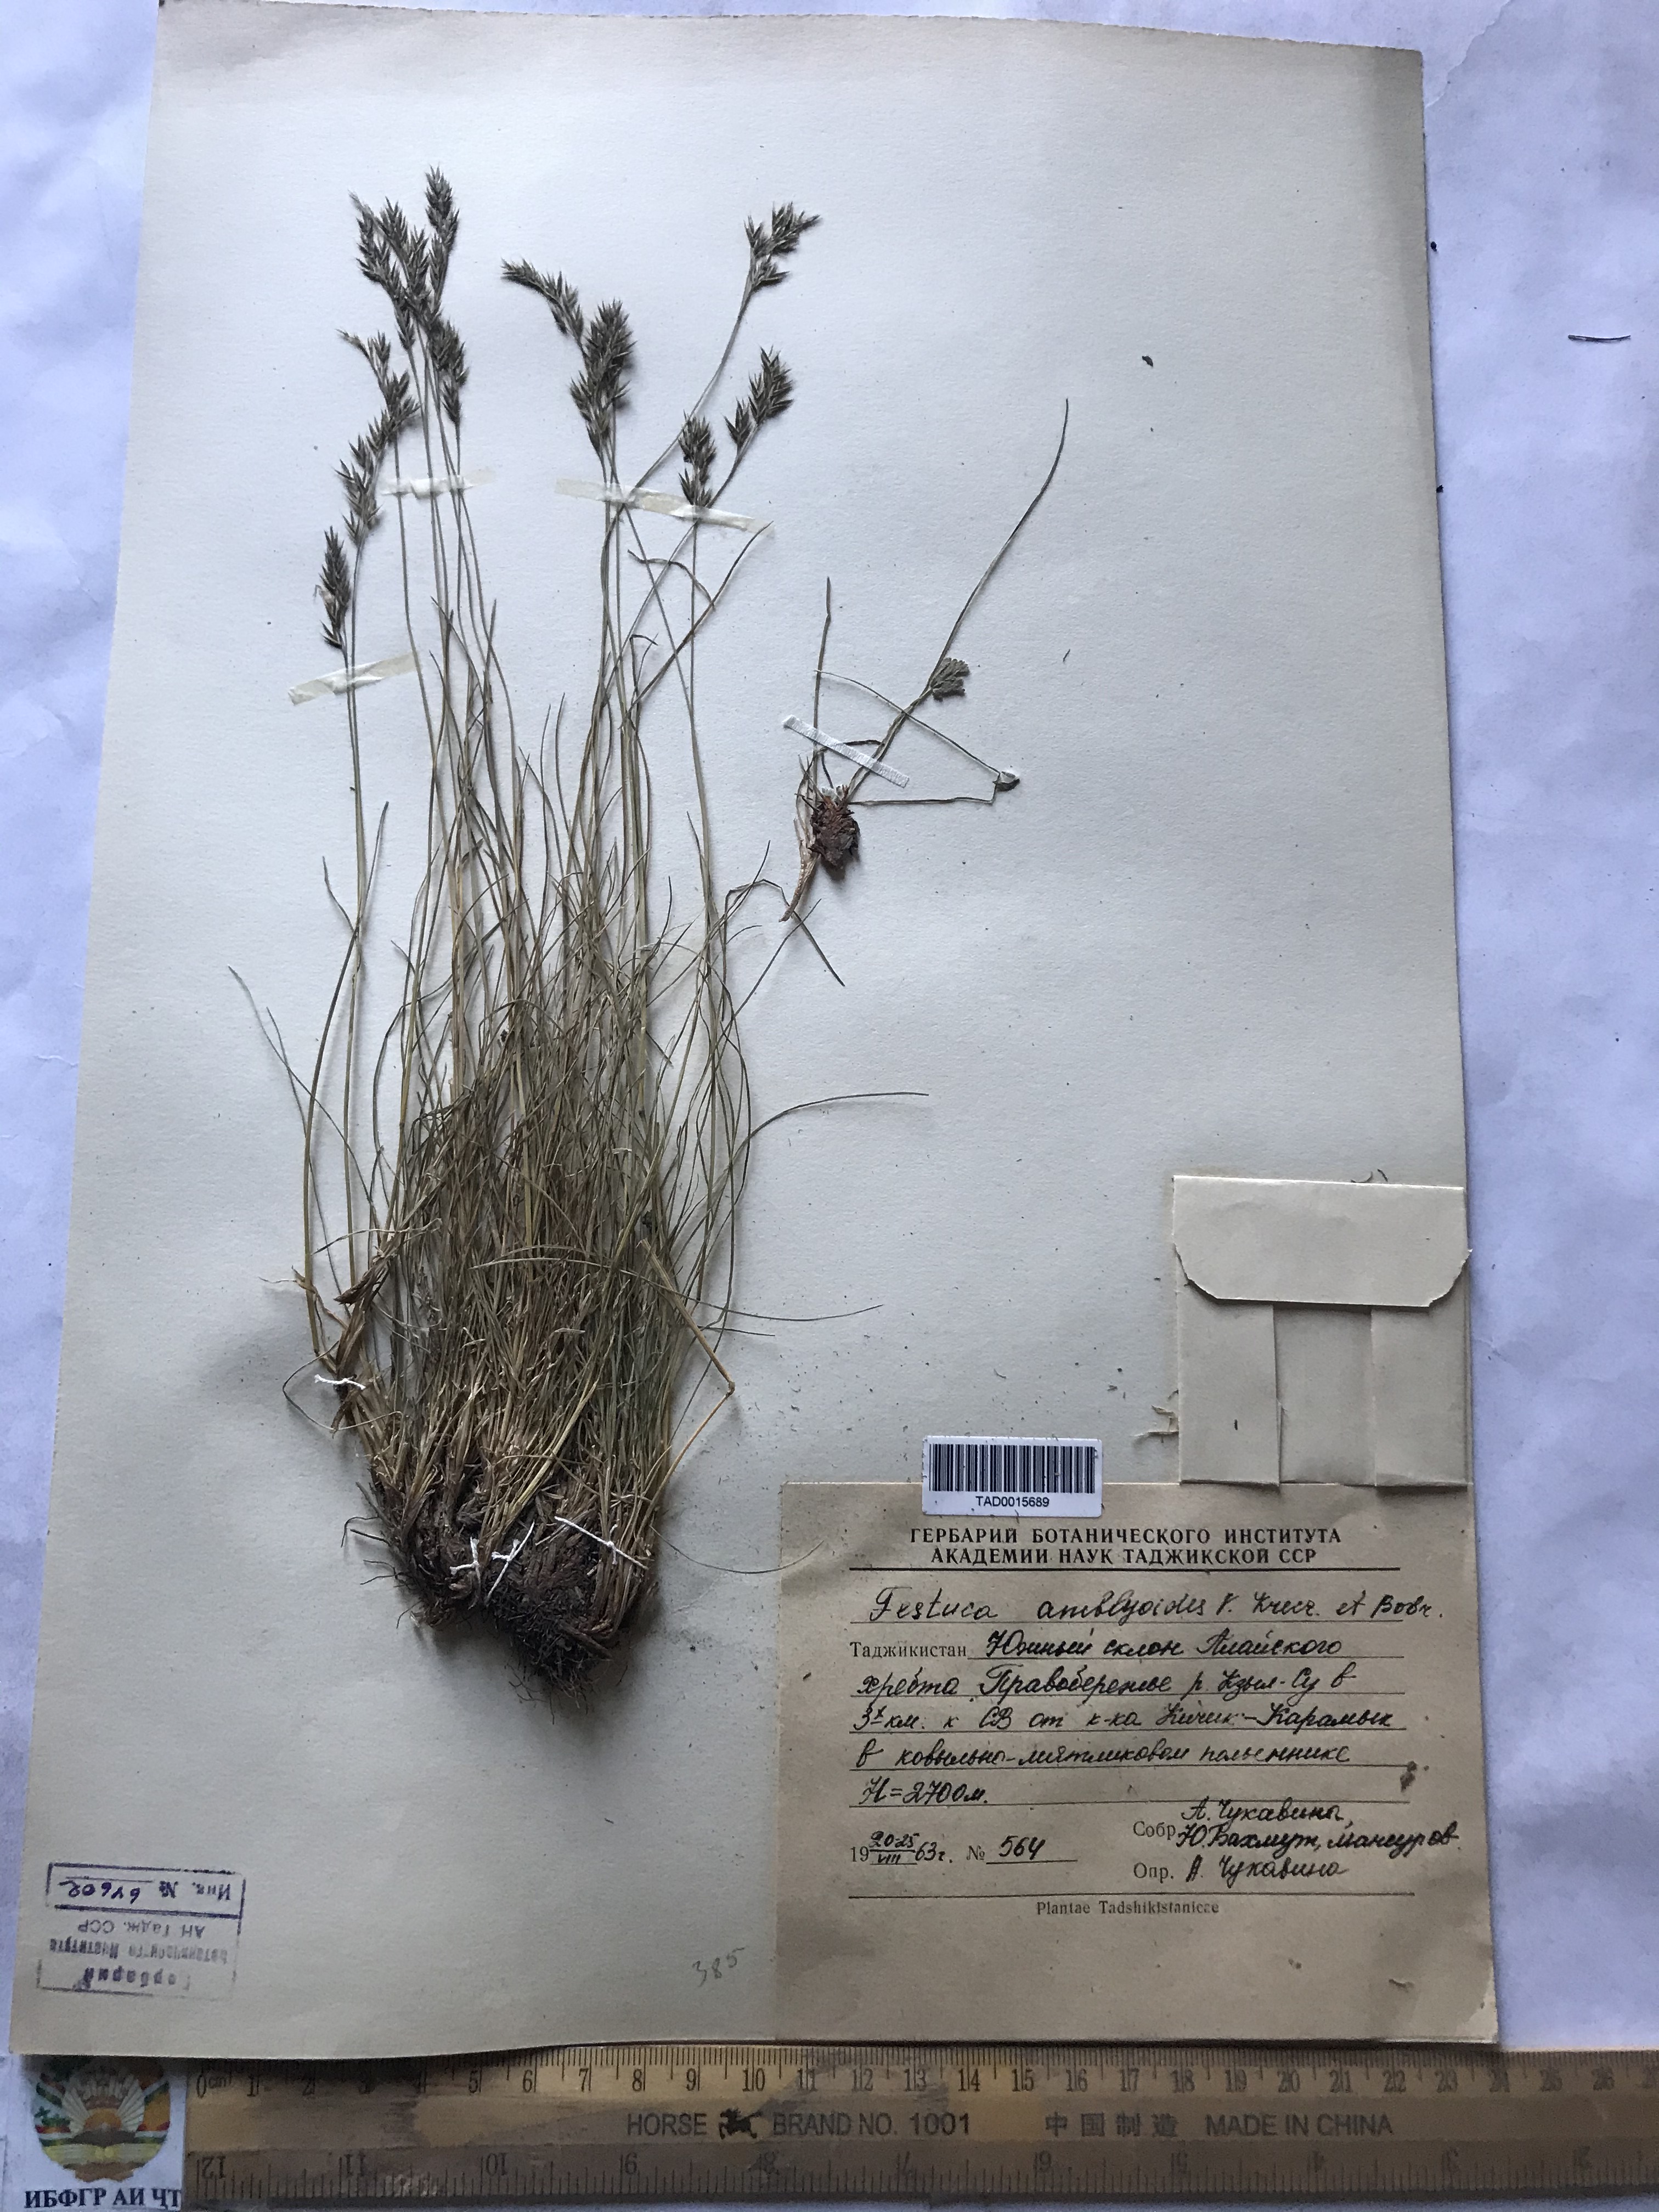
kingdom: Plantae
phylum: Tracheophyta
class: Liliopsida
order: Poales
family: Poaceae
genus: Festuca
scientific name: Festuca amblyodes
